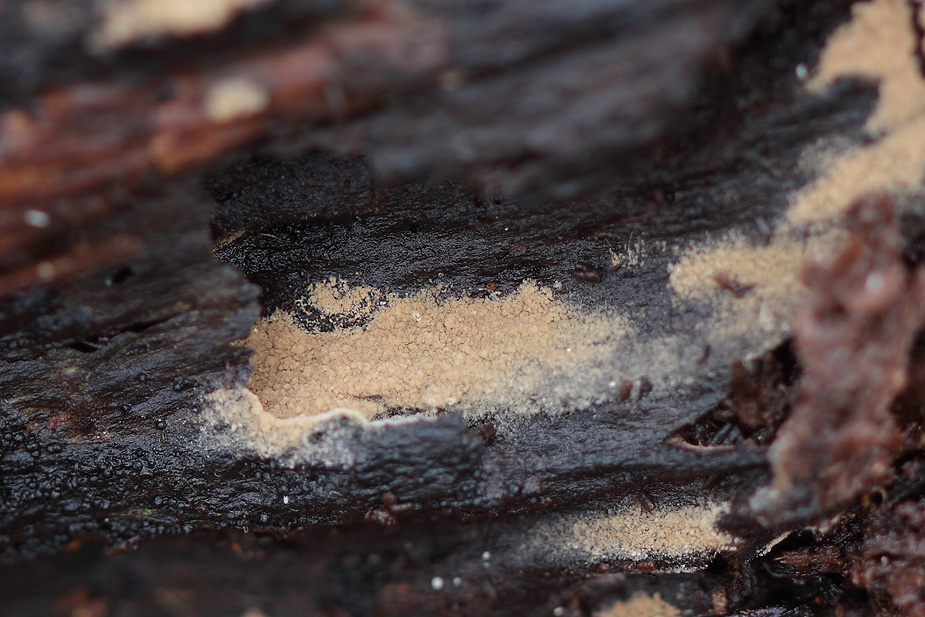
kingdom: Fungi
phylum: Basidiomycota
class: Agaricomycetes
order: Thelephorales
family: Thelephoraceae
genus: Tomentella
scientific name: Tomentella
